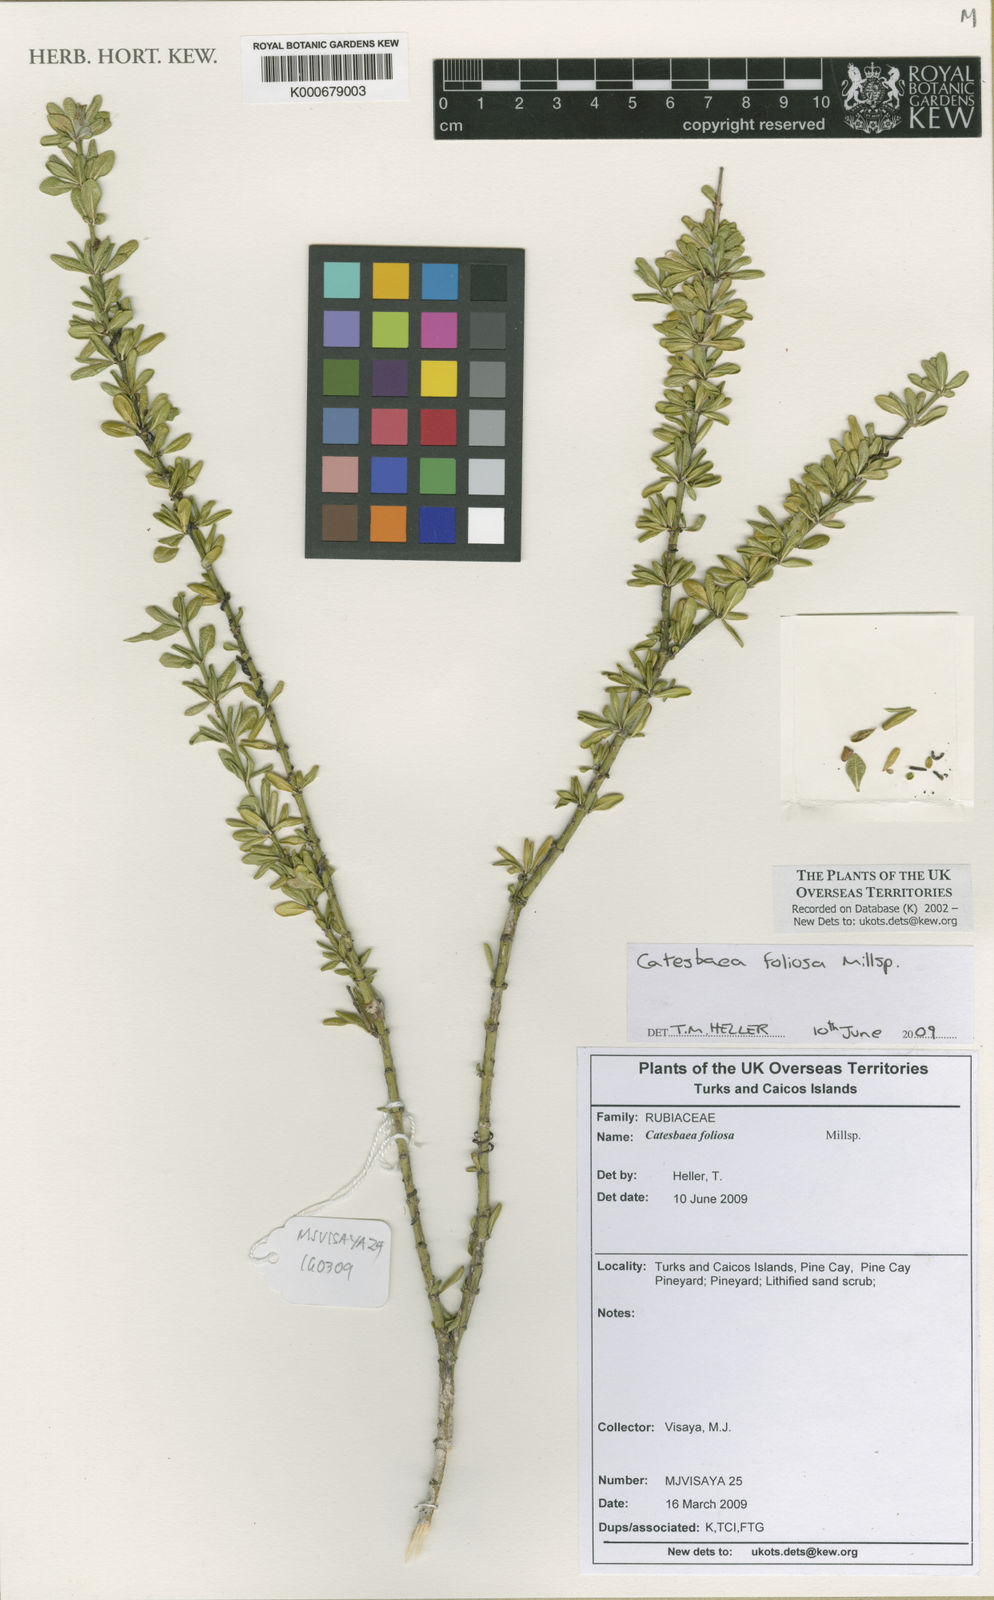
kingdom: Plantae
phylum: Tracheophyta
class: Magnoliopsida
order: Gentianales
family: Rubiaceae
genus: Catesbaea
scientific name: Catesbaea foliosa
